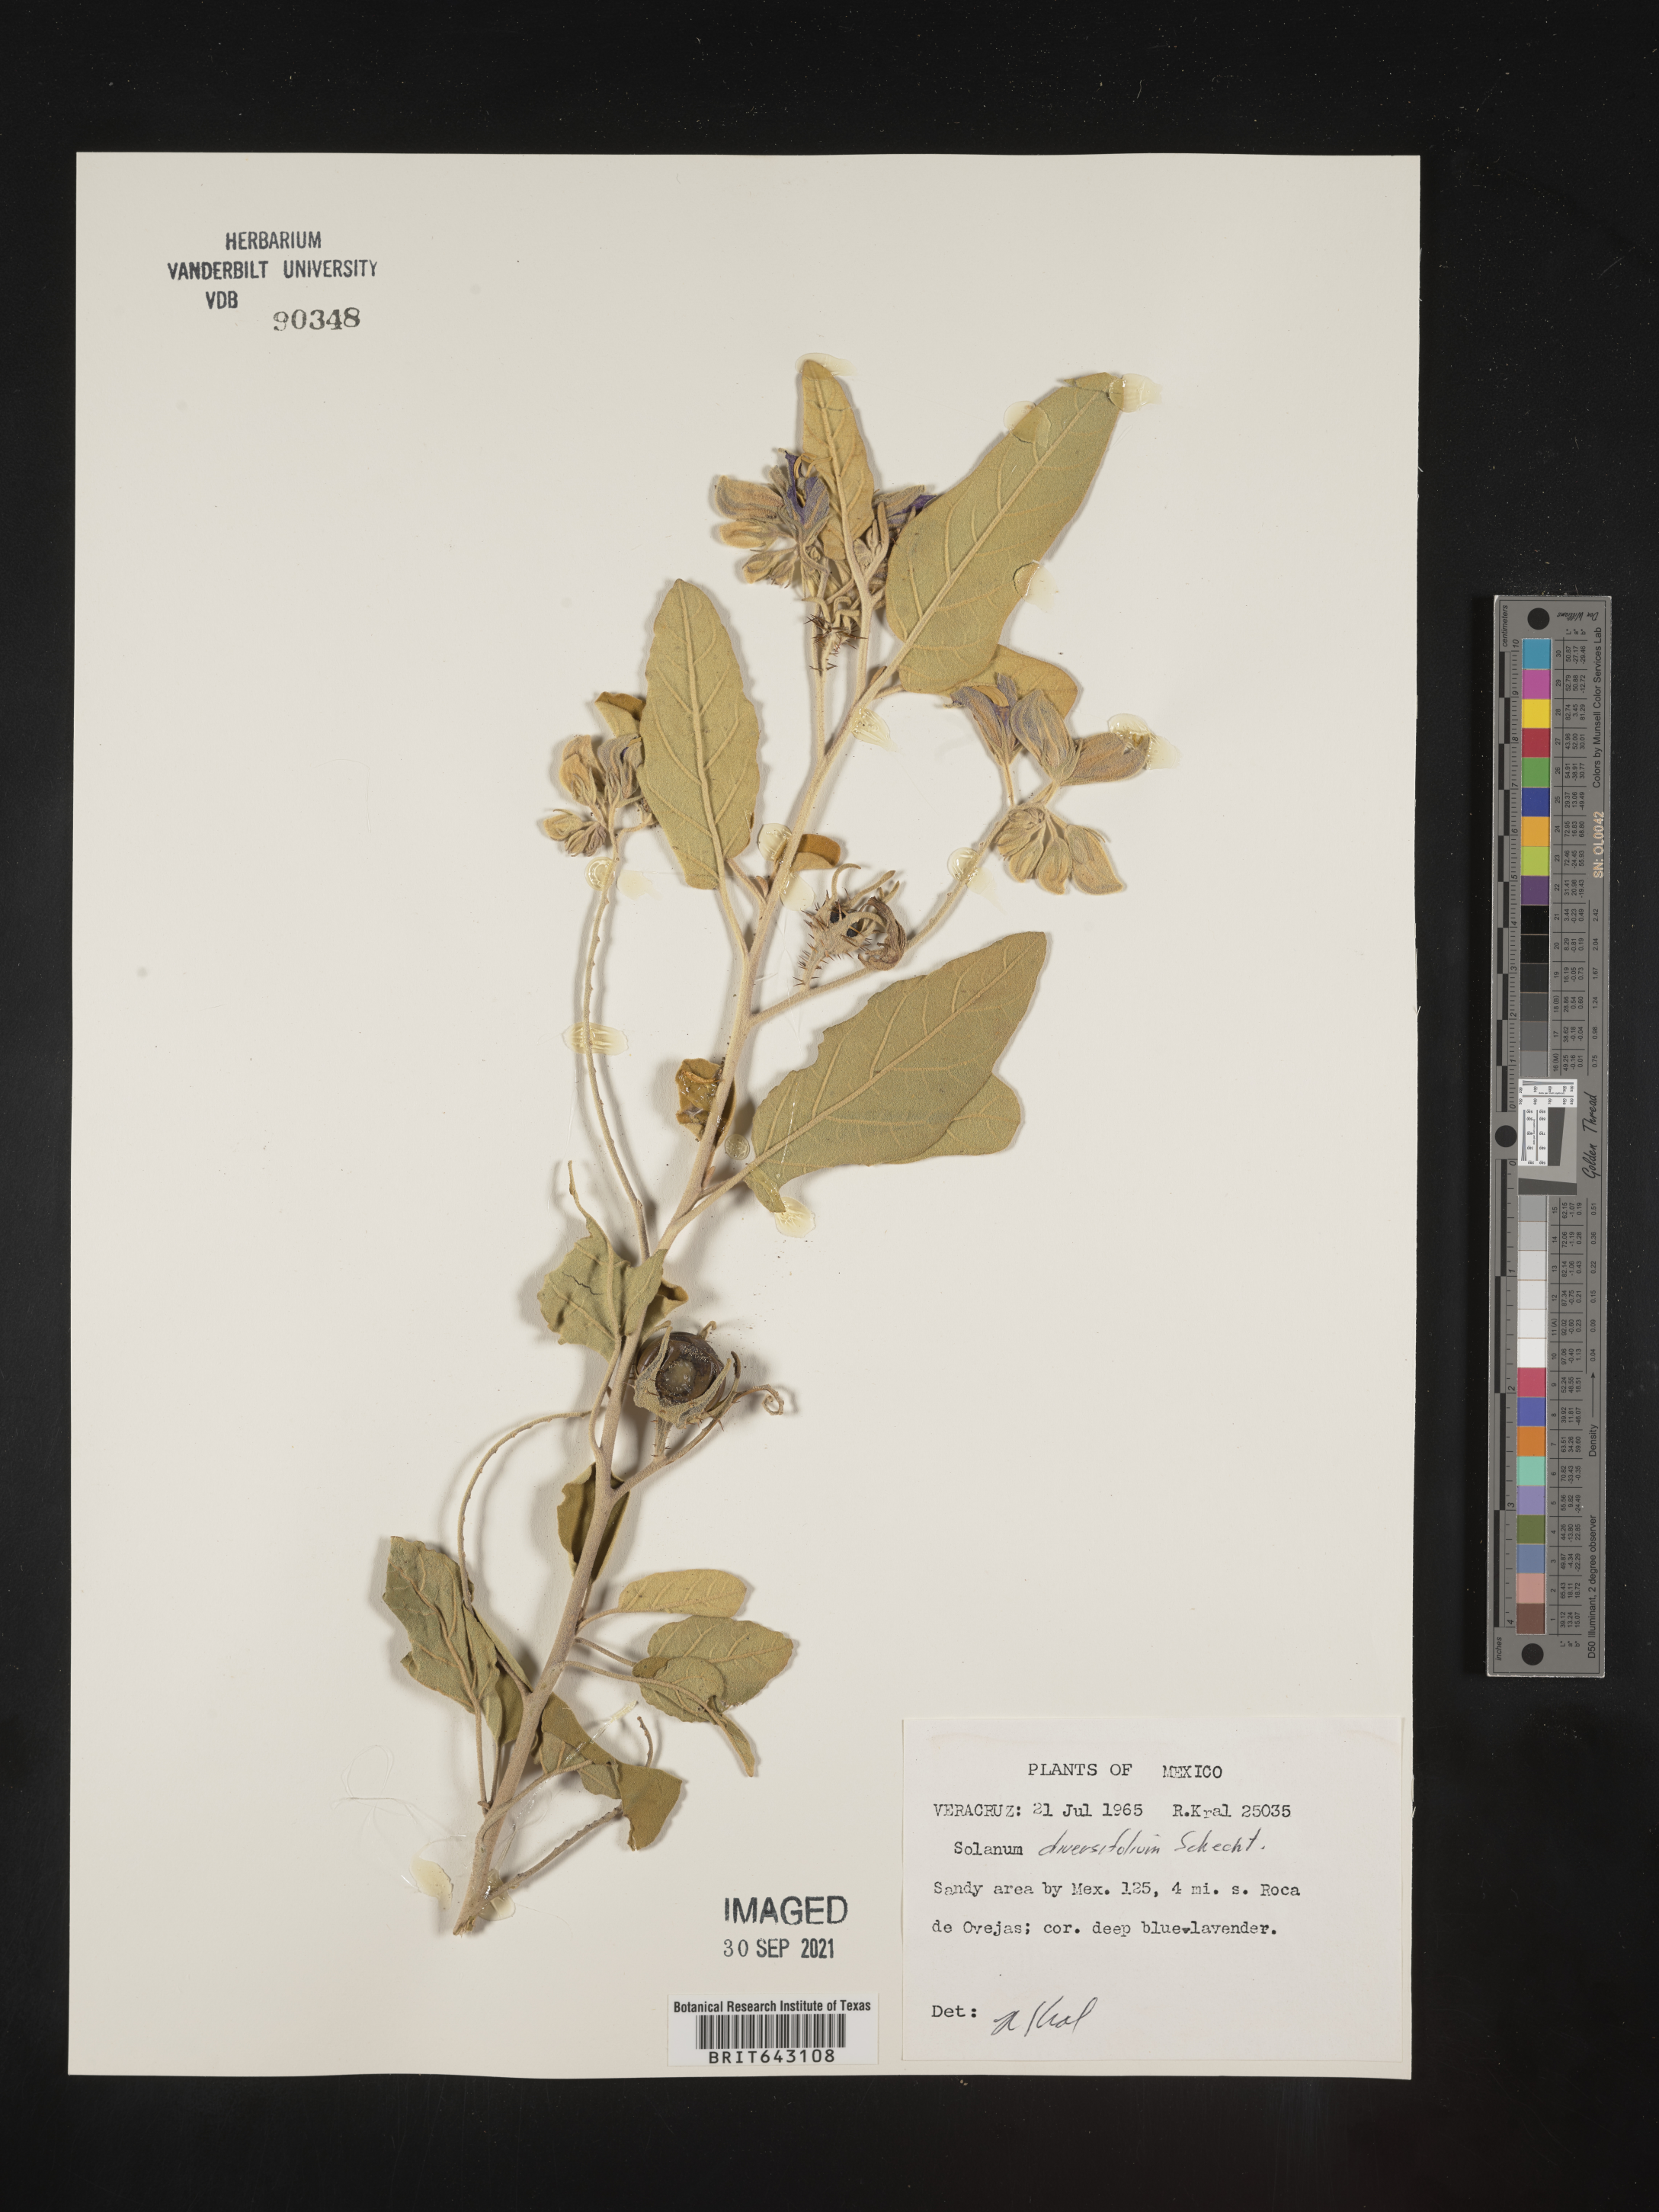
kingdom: Plantae
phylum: Tracheophyta
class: Magnoliopsida
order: Solanales
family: Solanaceae
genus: Solanum
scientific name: Solanum
